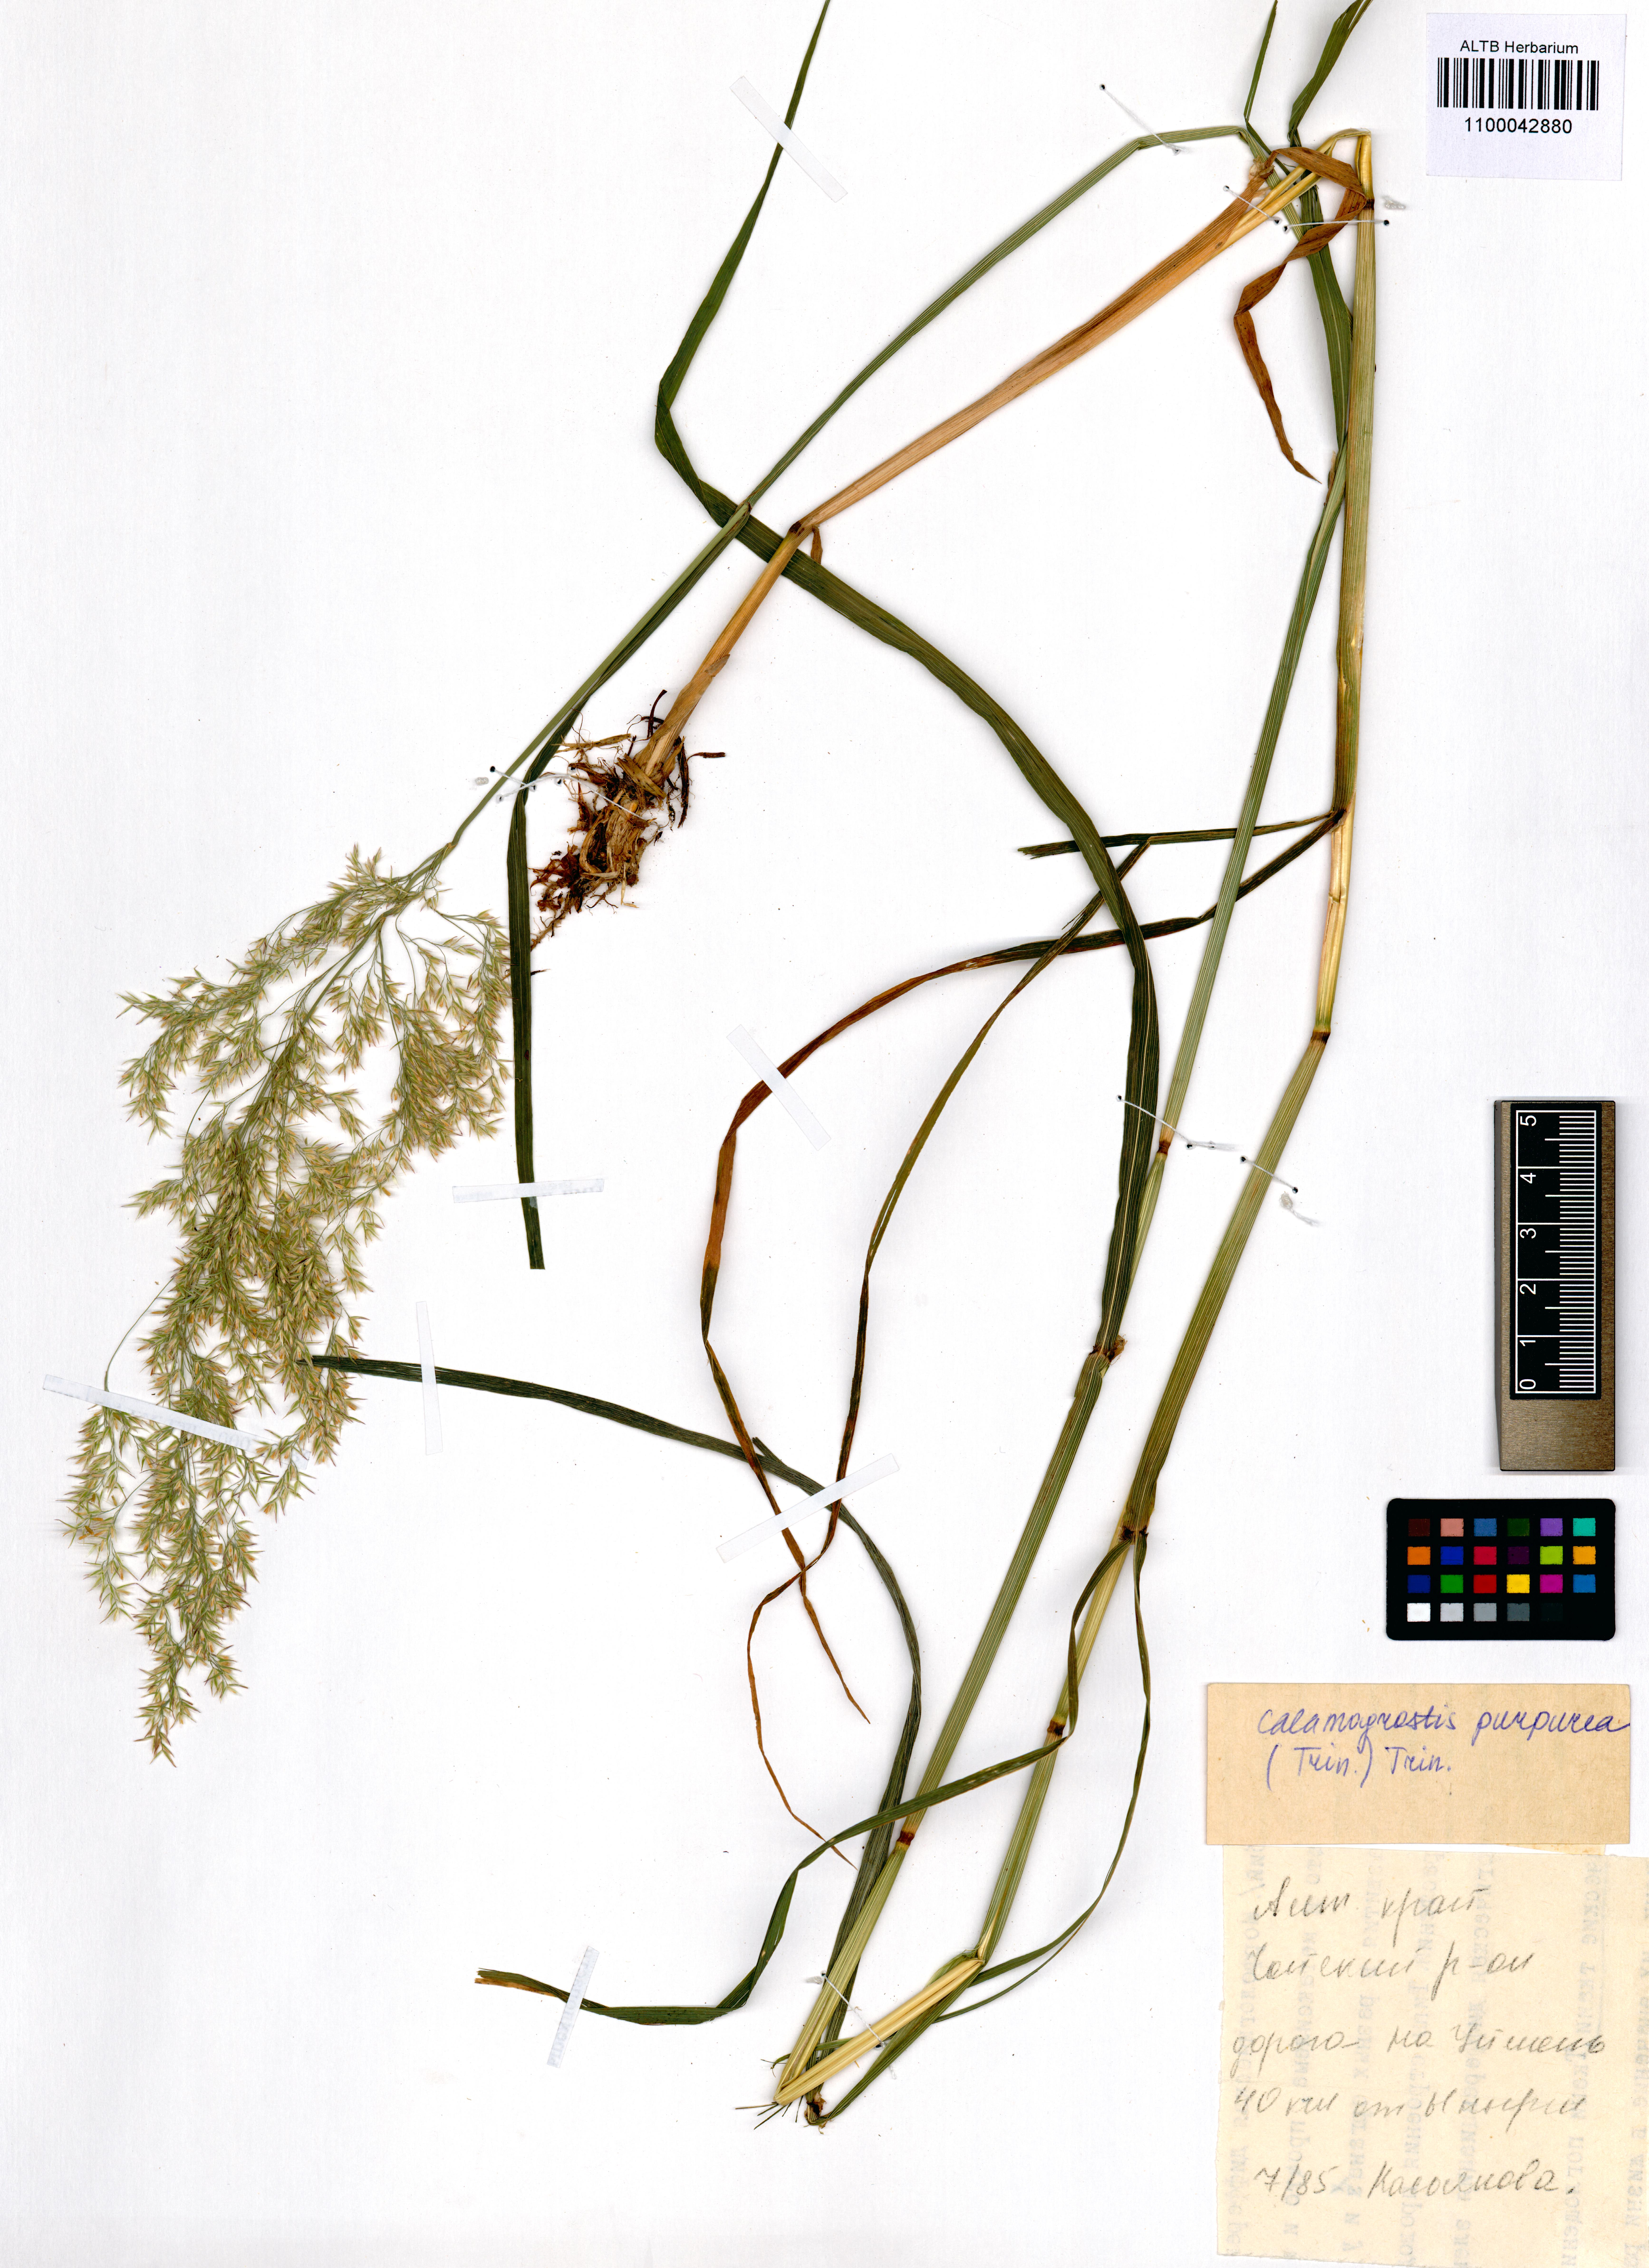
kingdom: Plantae
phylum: Tracheophyta
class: Liliopsida
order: Poales
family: Poaceae
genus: Calamagrostis
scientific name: Calamagrostis purpurea
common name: Scandinavian small-reed
